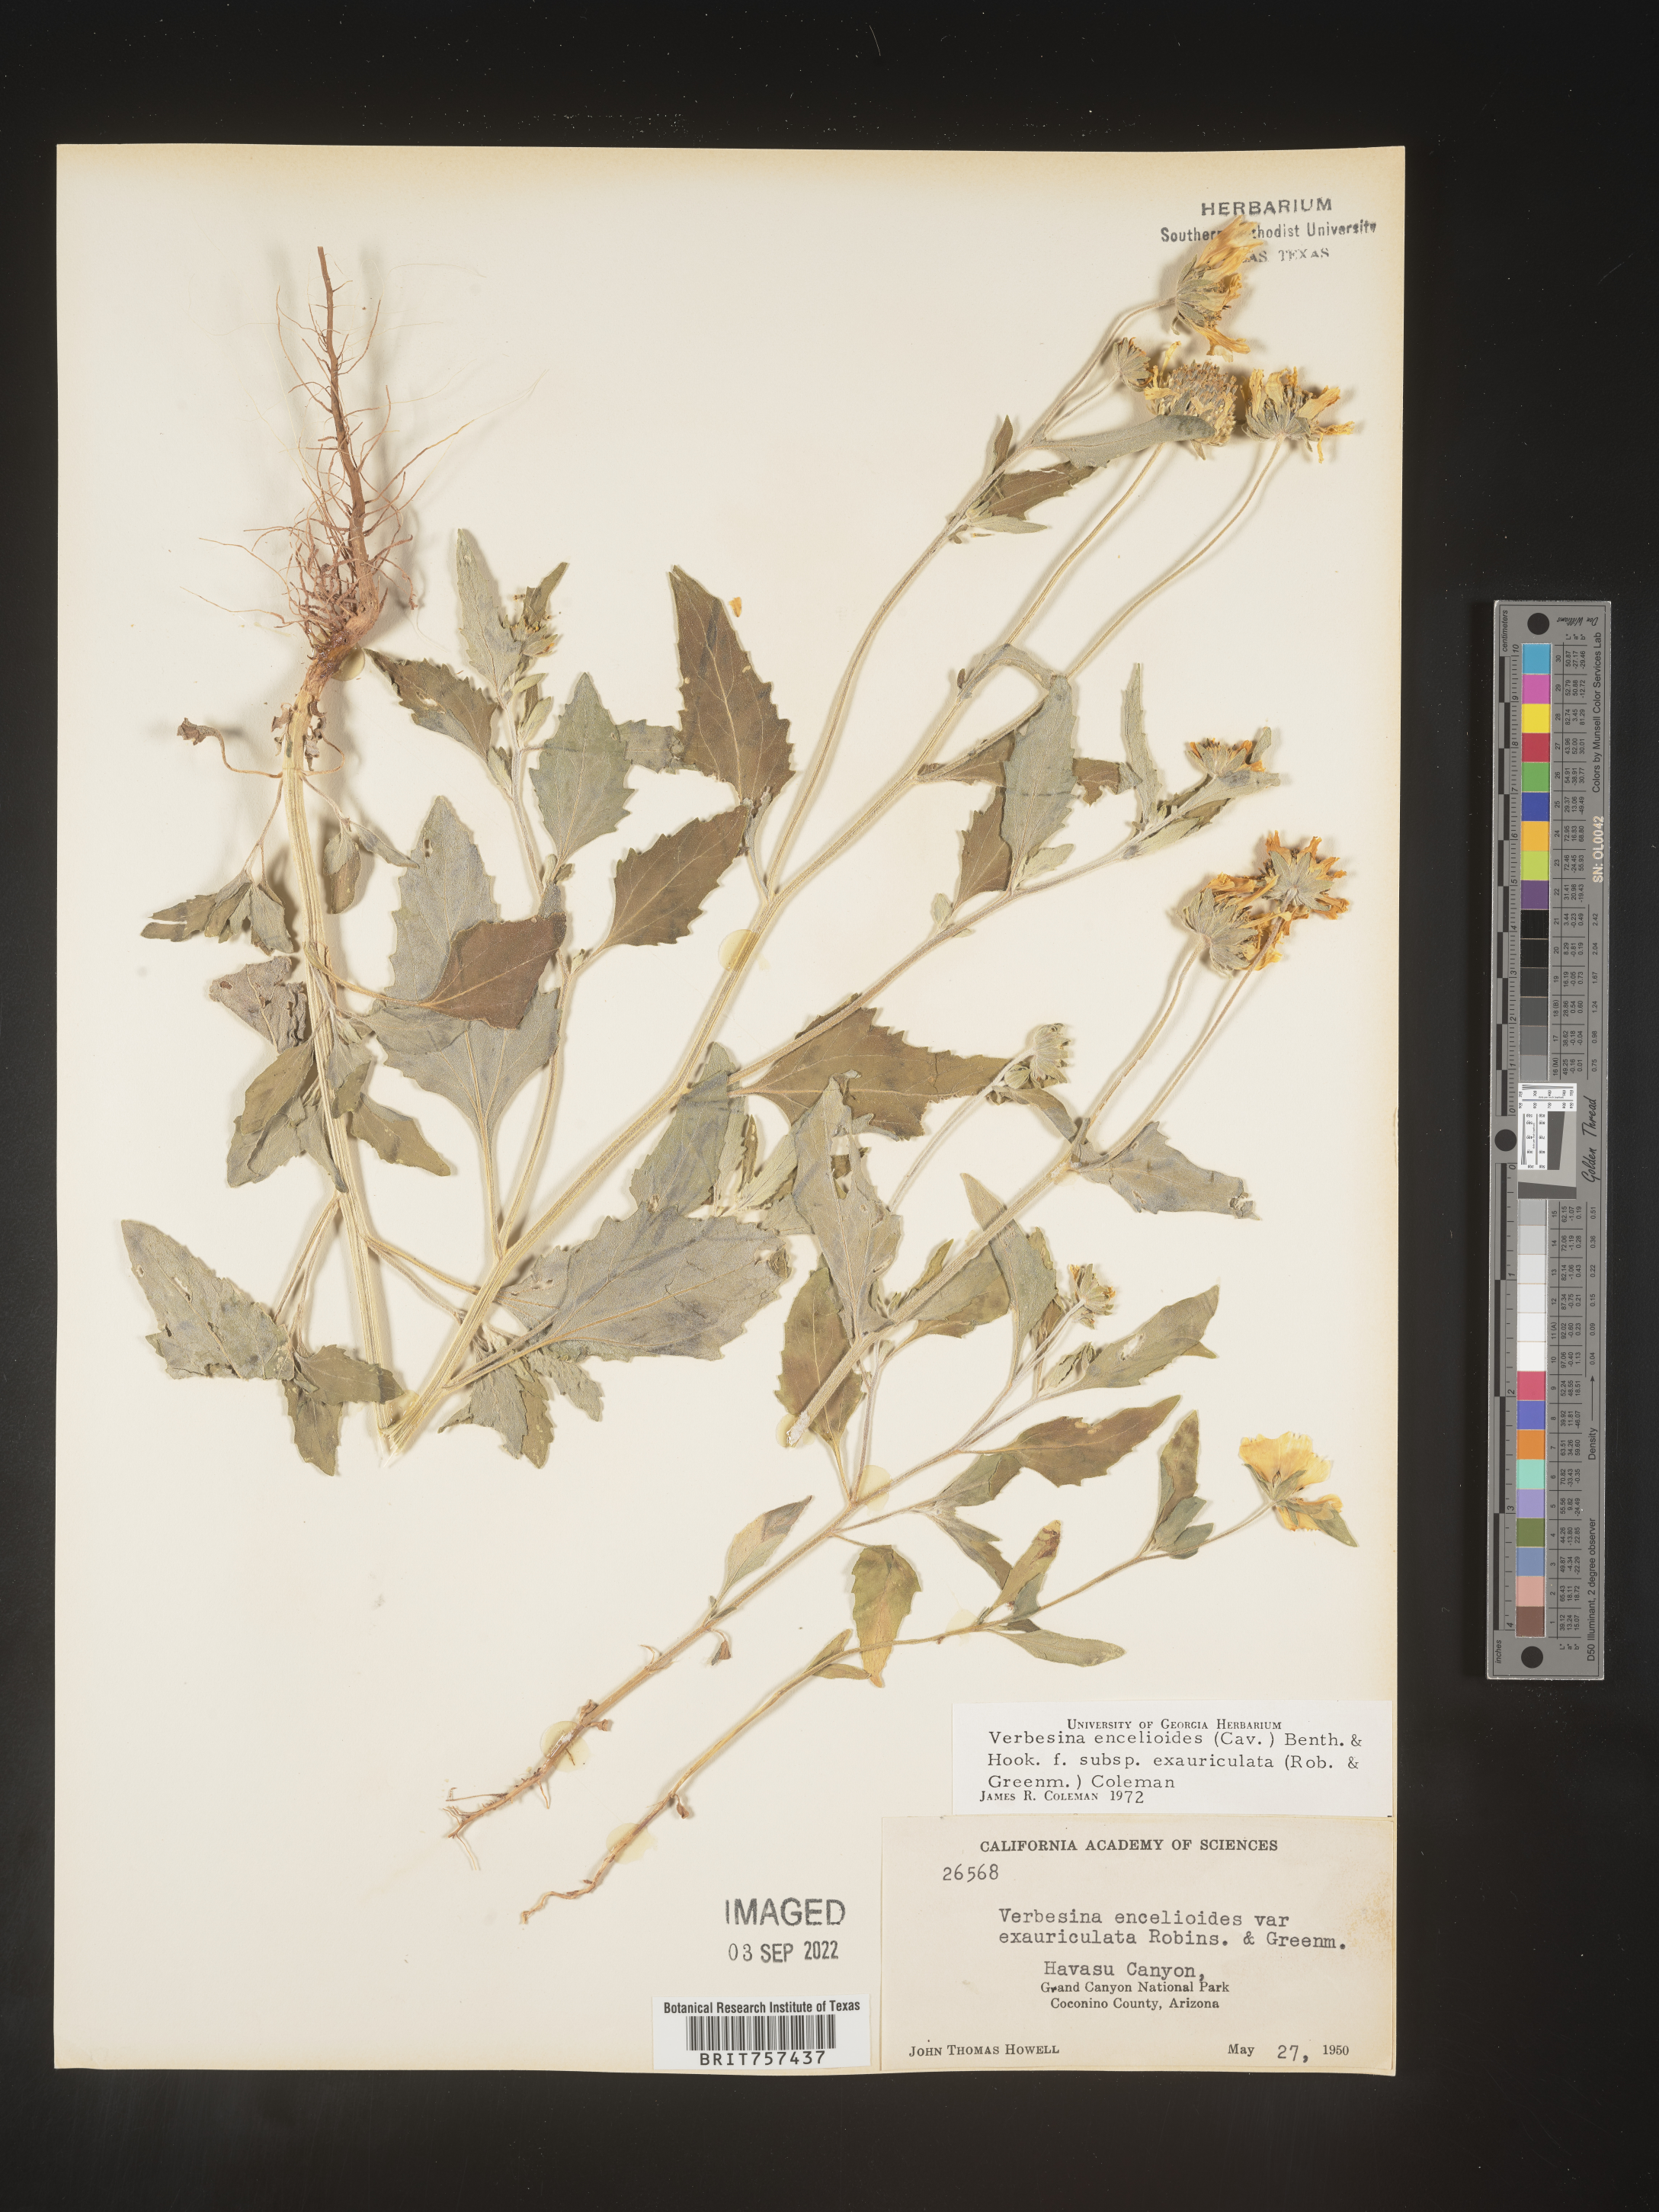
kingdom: Plantae
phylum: Tracheophyta
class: Magnoliopsida
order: Asterales
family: Asteraceae
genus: Verbesina
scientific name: Verbesina encelioides
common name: Golden crownbeard
